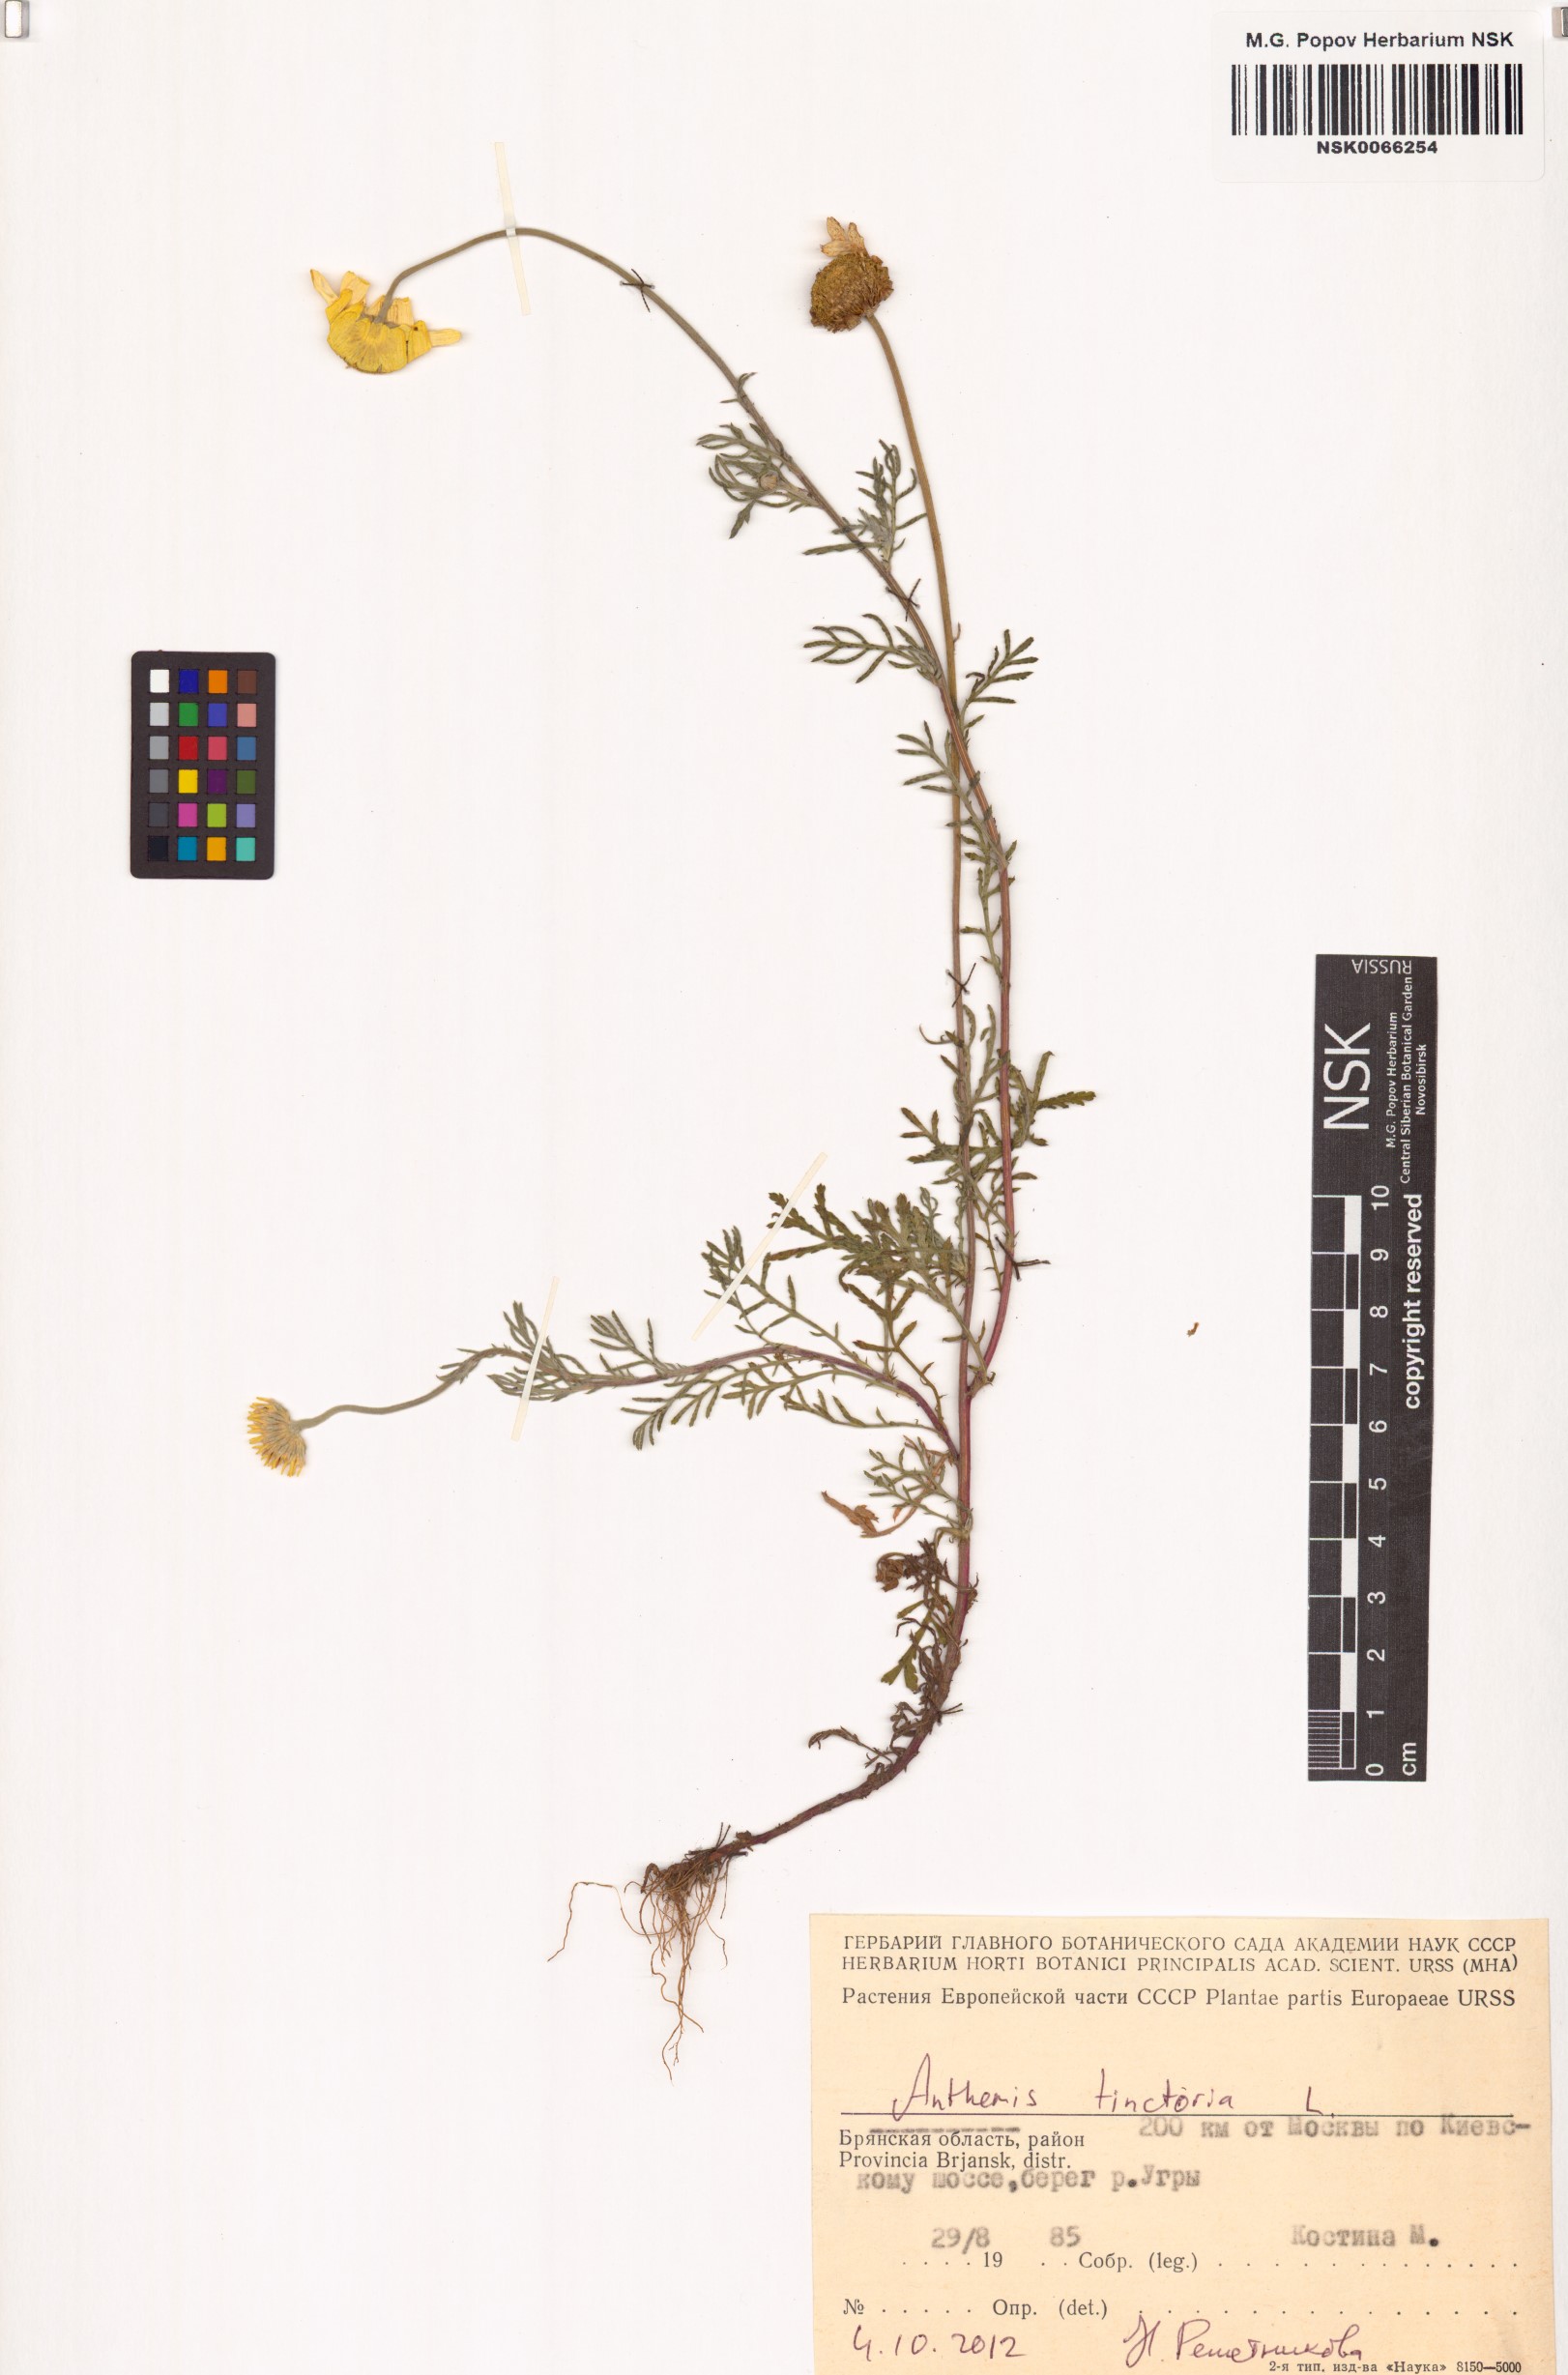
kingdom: Plantae
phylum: Tracheophyta
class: Magnoliopsida
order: Asterales
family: Asteraceae
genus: Cota
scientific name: Cota tinctoria
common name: Golden chamomile
